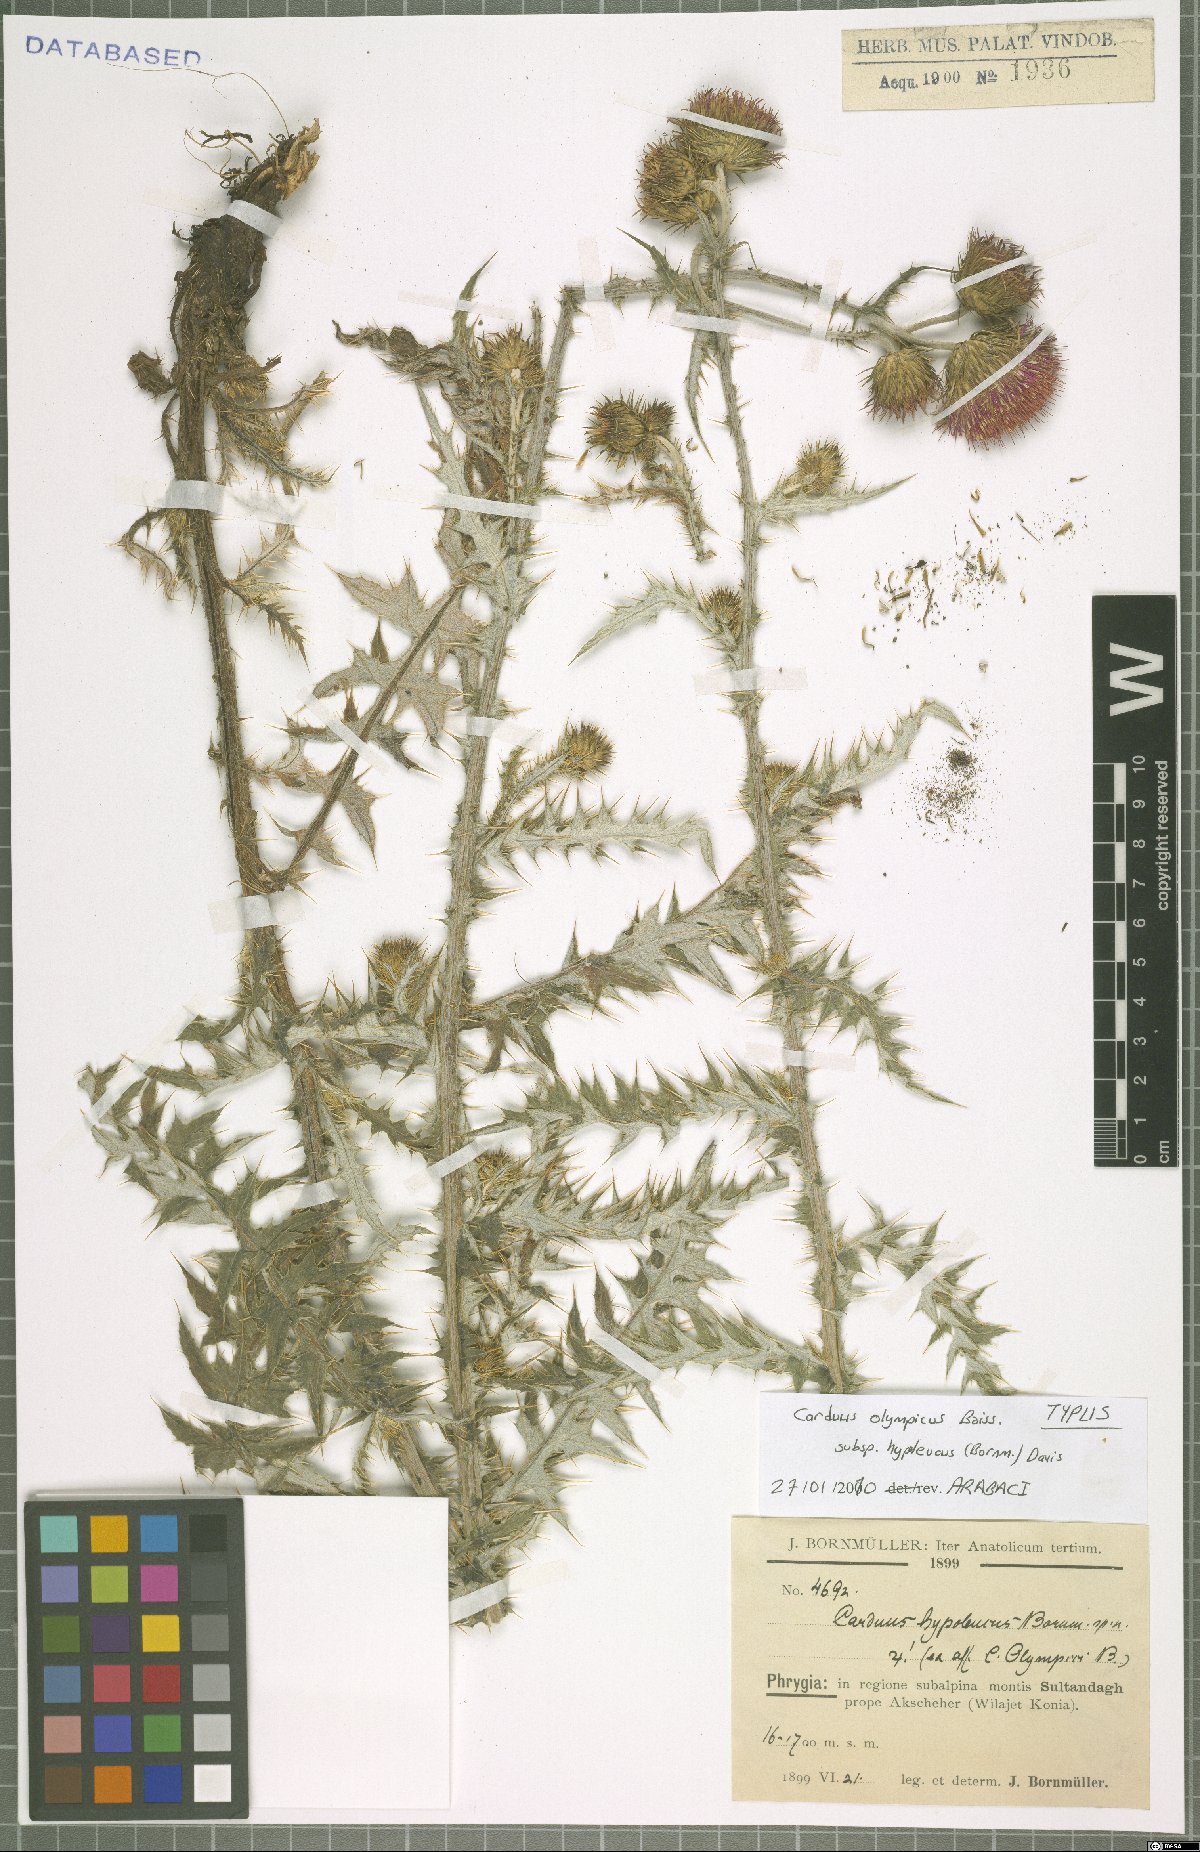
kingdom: Plantae
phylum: Tracheophyta
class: Magnoliopsida
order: Asterales
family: Asteraceae
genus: Carduus
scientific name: Carduus olympicus
